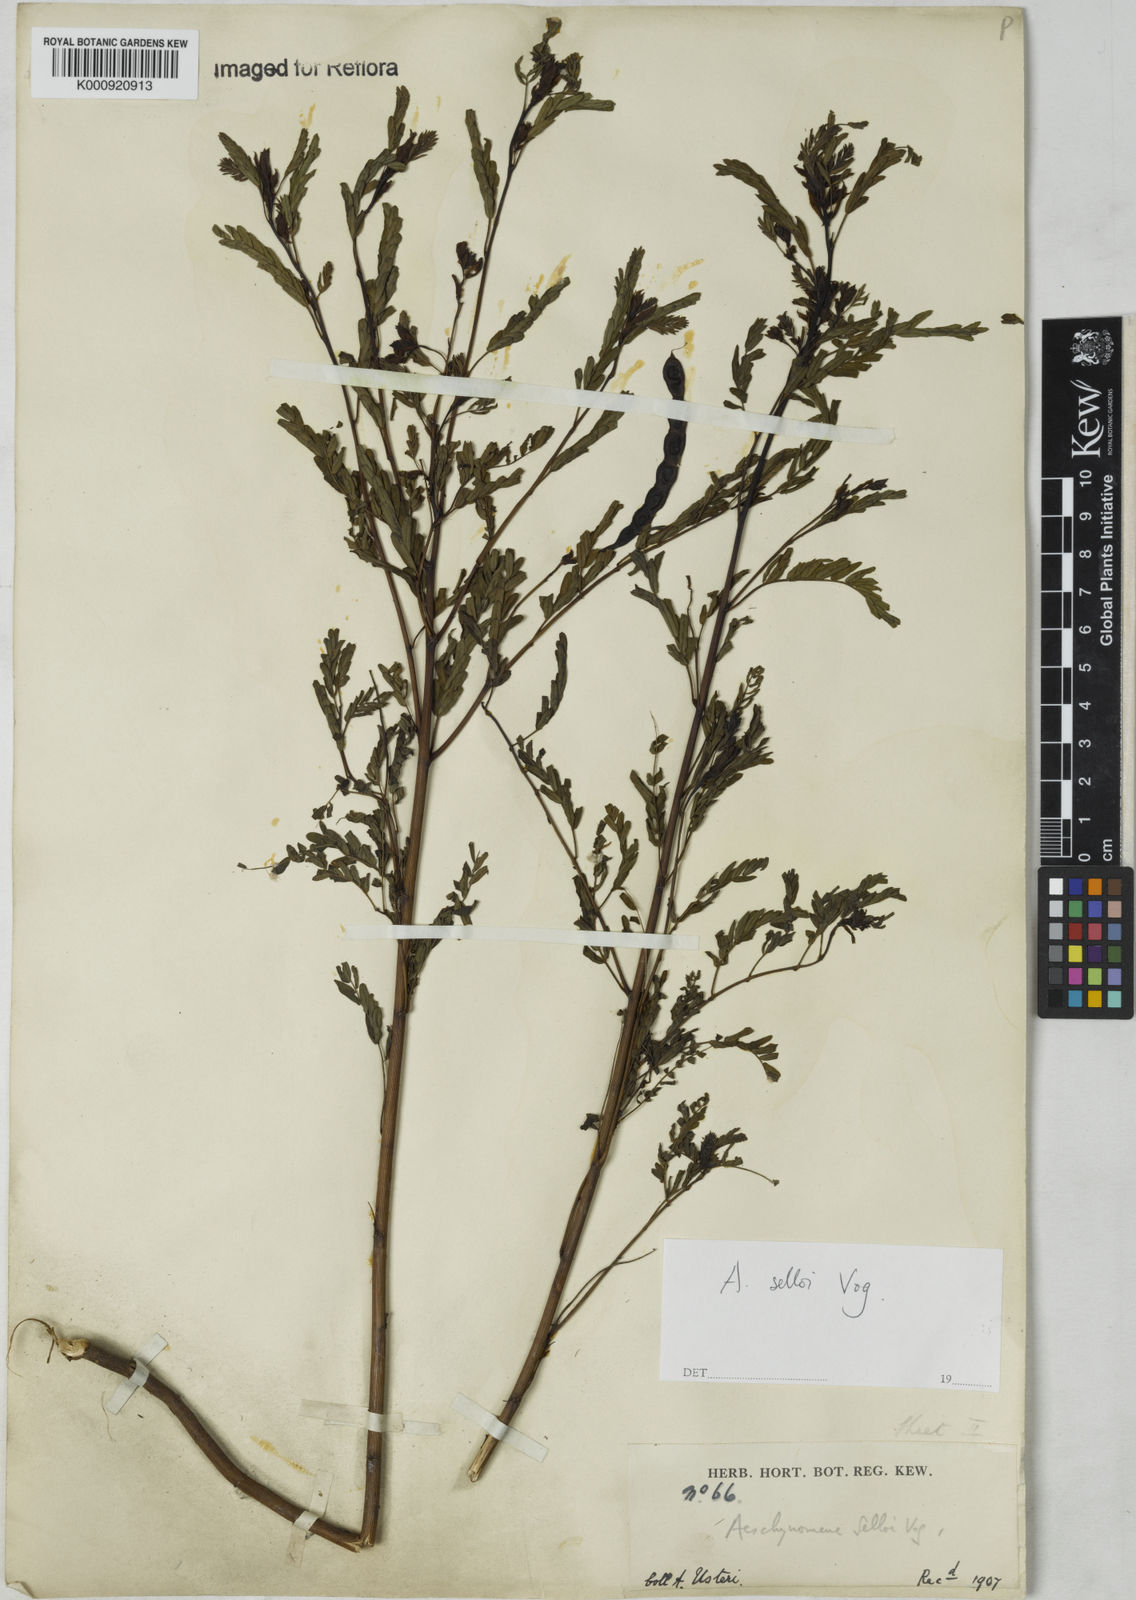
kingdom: Plantae
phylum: Tracheophyta
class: Magnoliopsida
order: Fabales
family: Fabaceae
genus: Centrosema
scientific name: Centrosema
